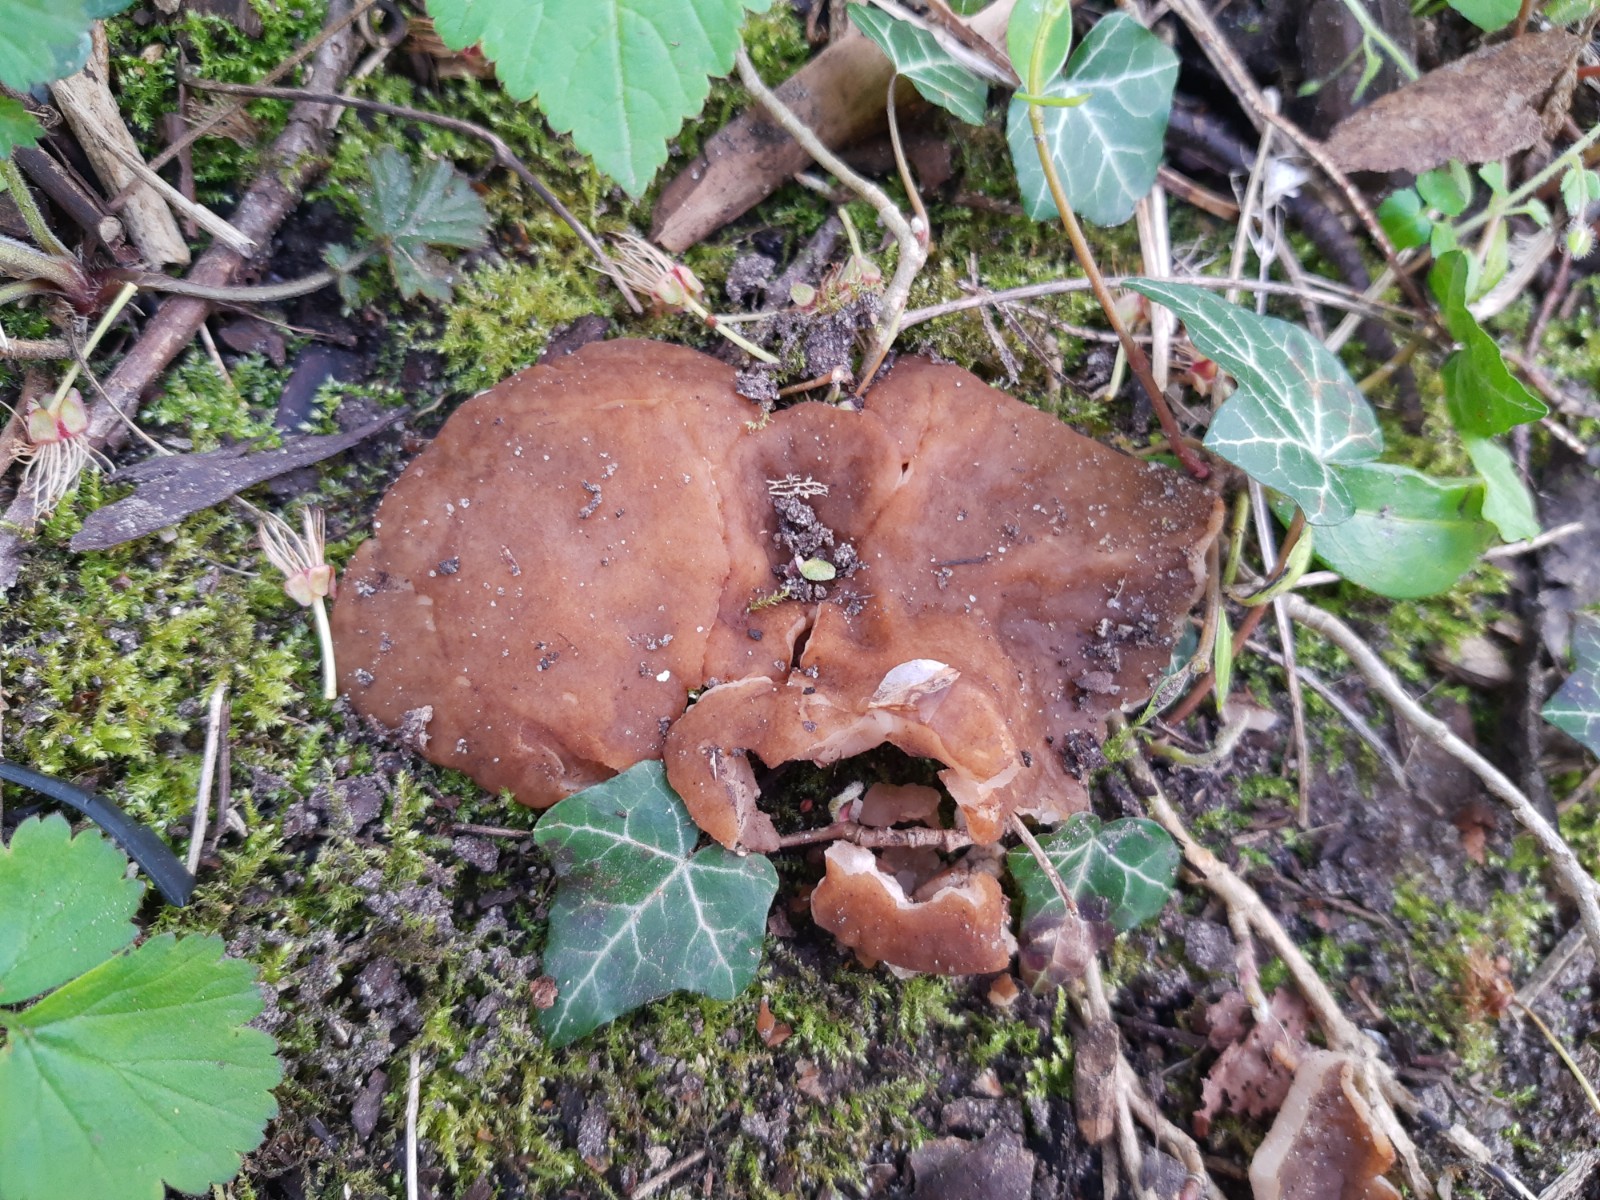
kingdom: Fungi
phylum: Ascomycota
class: Pezizomycetes
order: Pezizales
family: Morchellaceae
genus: Disciotis
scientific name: Disciotis venosa
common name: klor-bægermorkel
